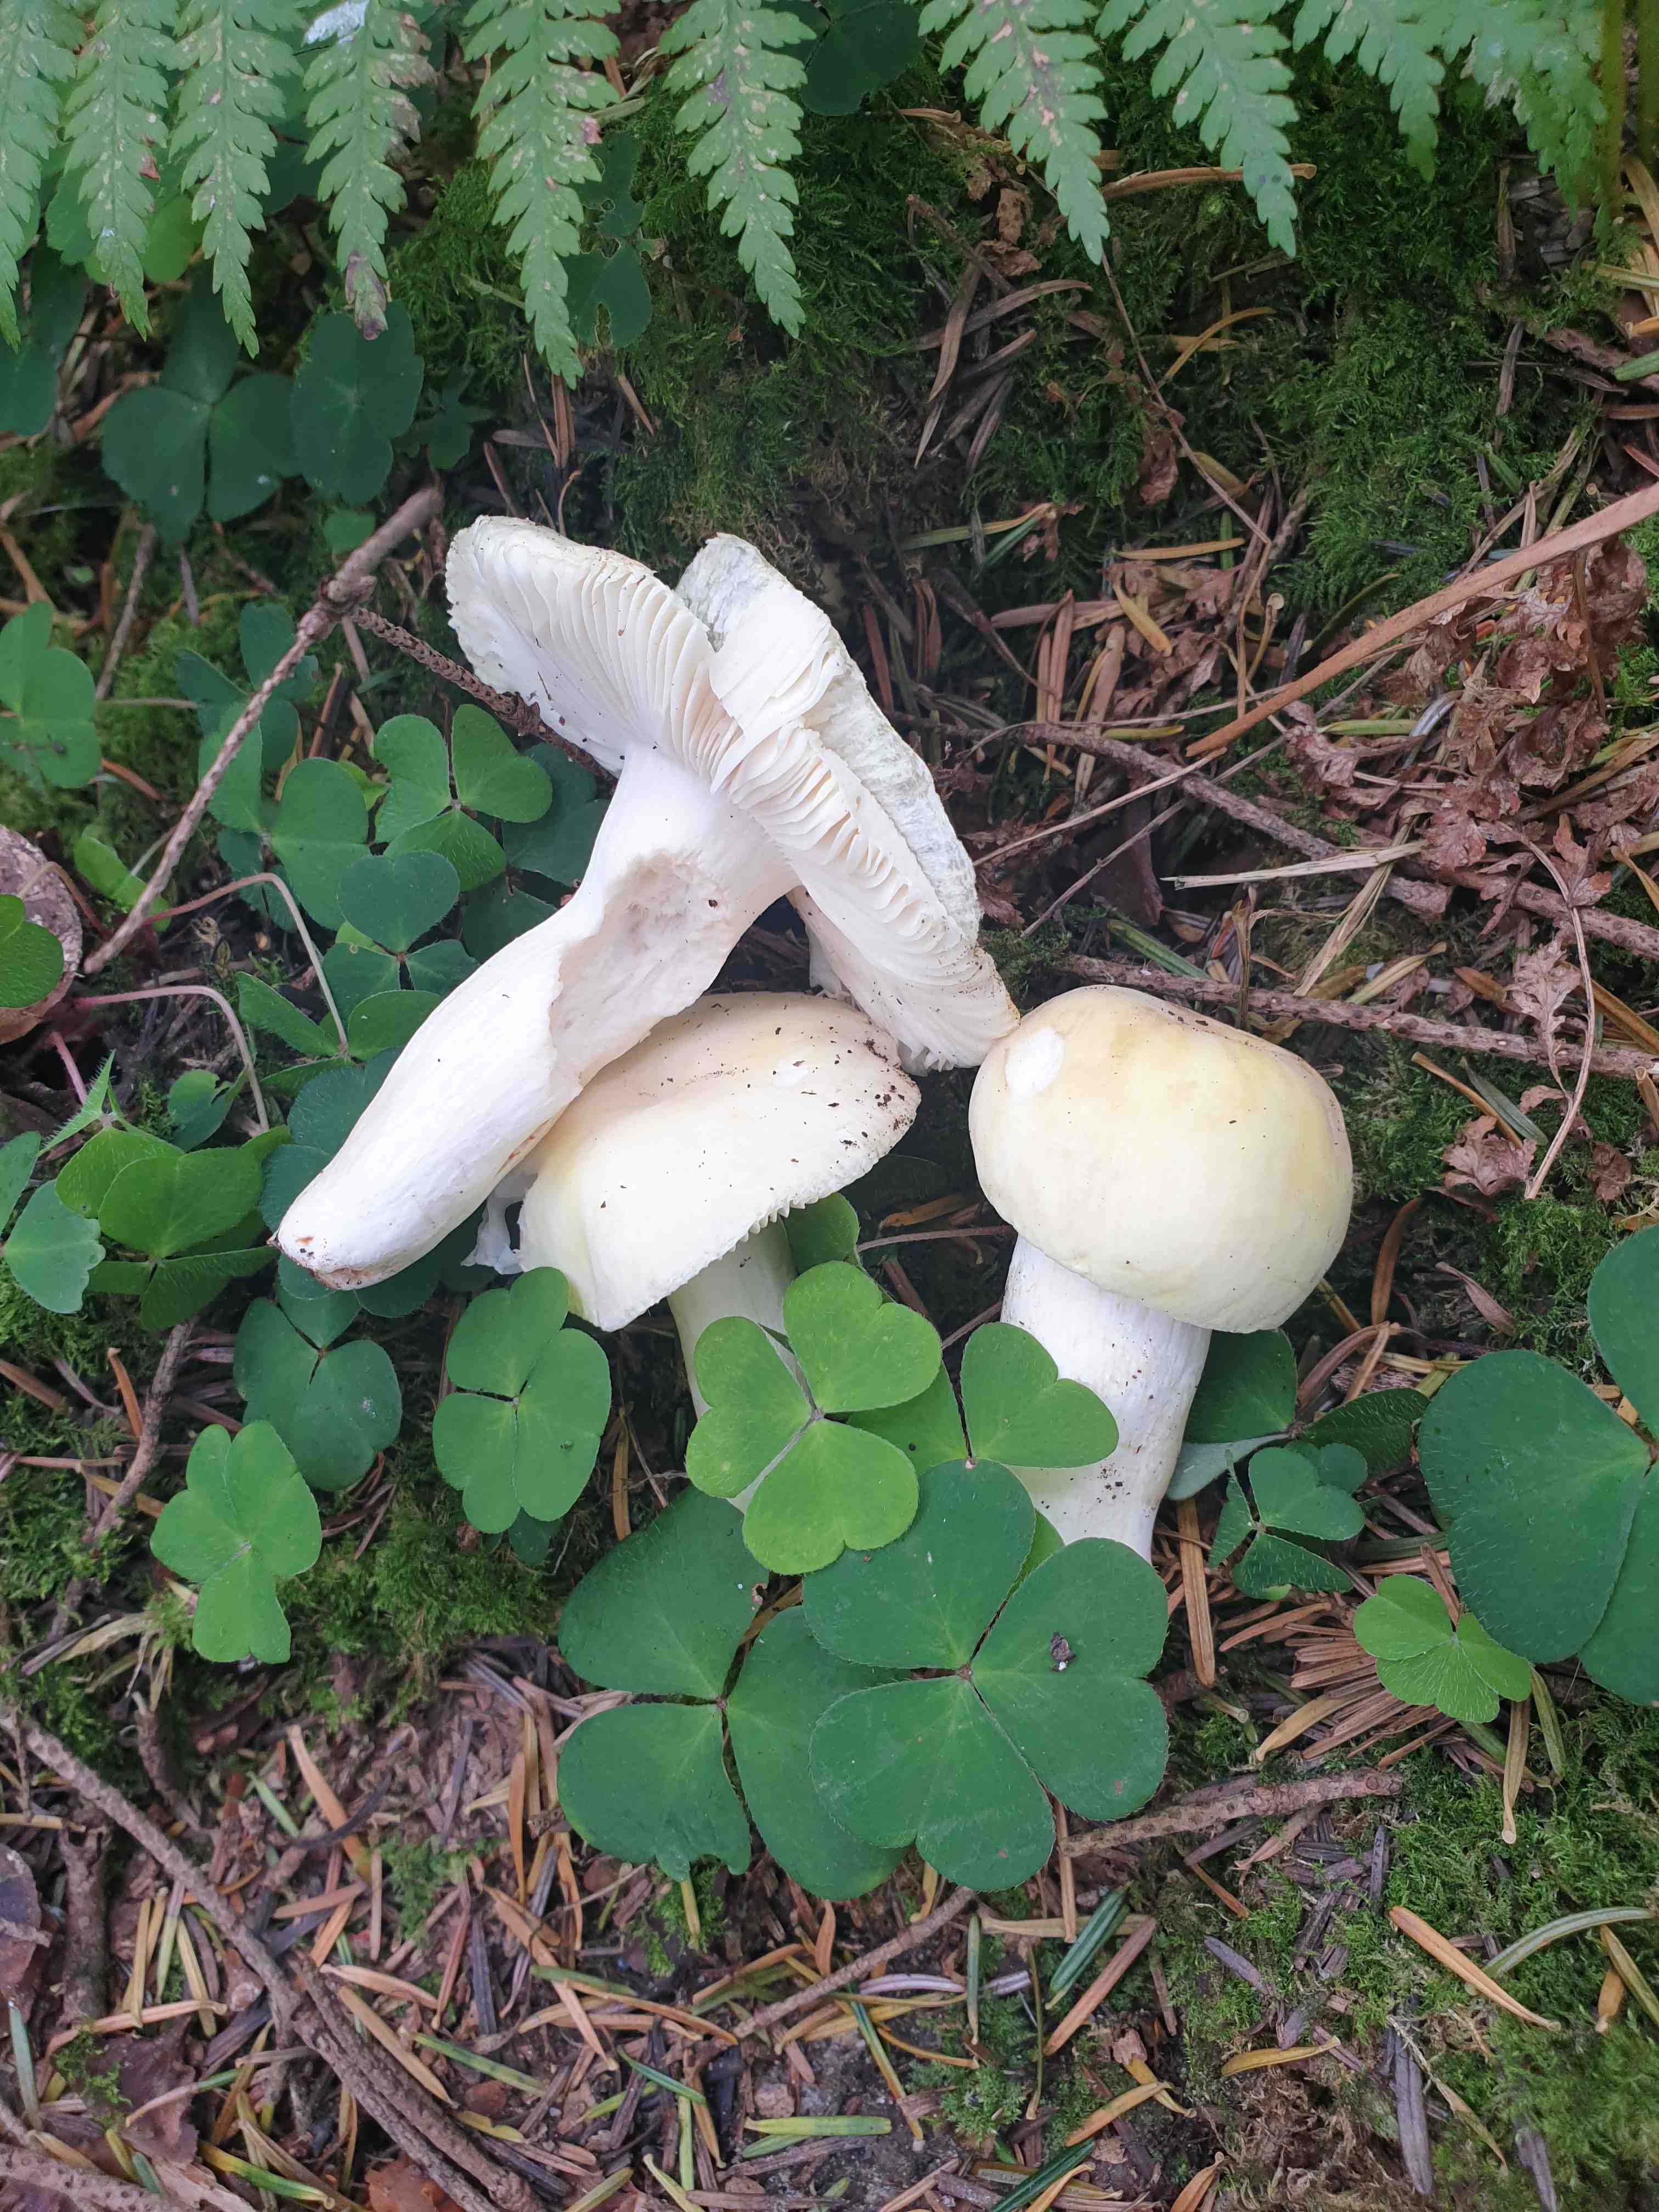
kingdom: Fungi
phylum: Basidiomycota
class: Agaricomycetes
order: Russulales
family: Russulaceae
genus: Russula
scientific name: Russula violeipes
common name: ferskengul skørhat
